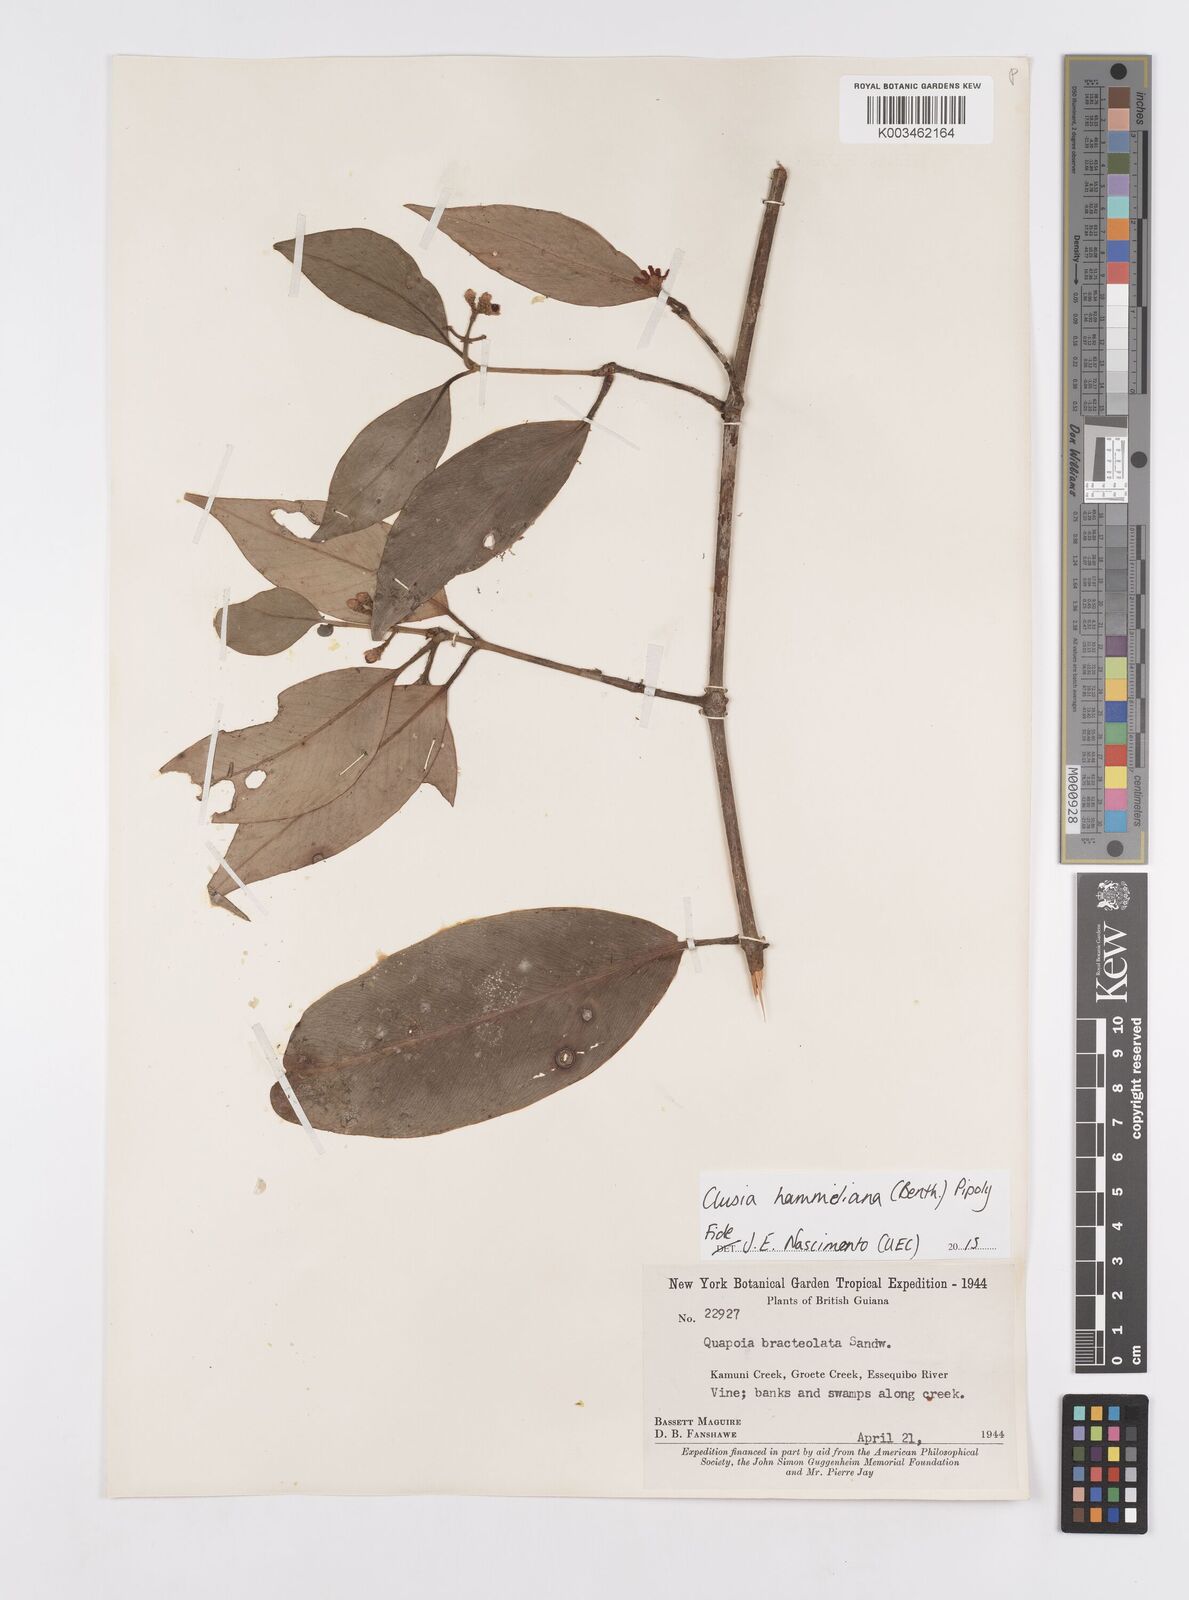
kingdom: Plantae
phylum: Tracheophyta
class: Magnoliopsida
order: Malpighiales
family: Clusiaceae
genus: Clusia
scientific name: Clusia hammeliana
